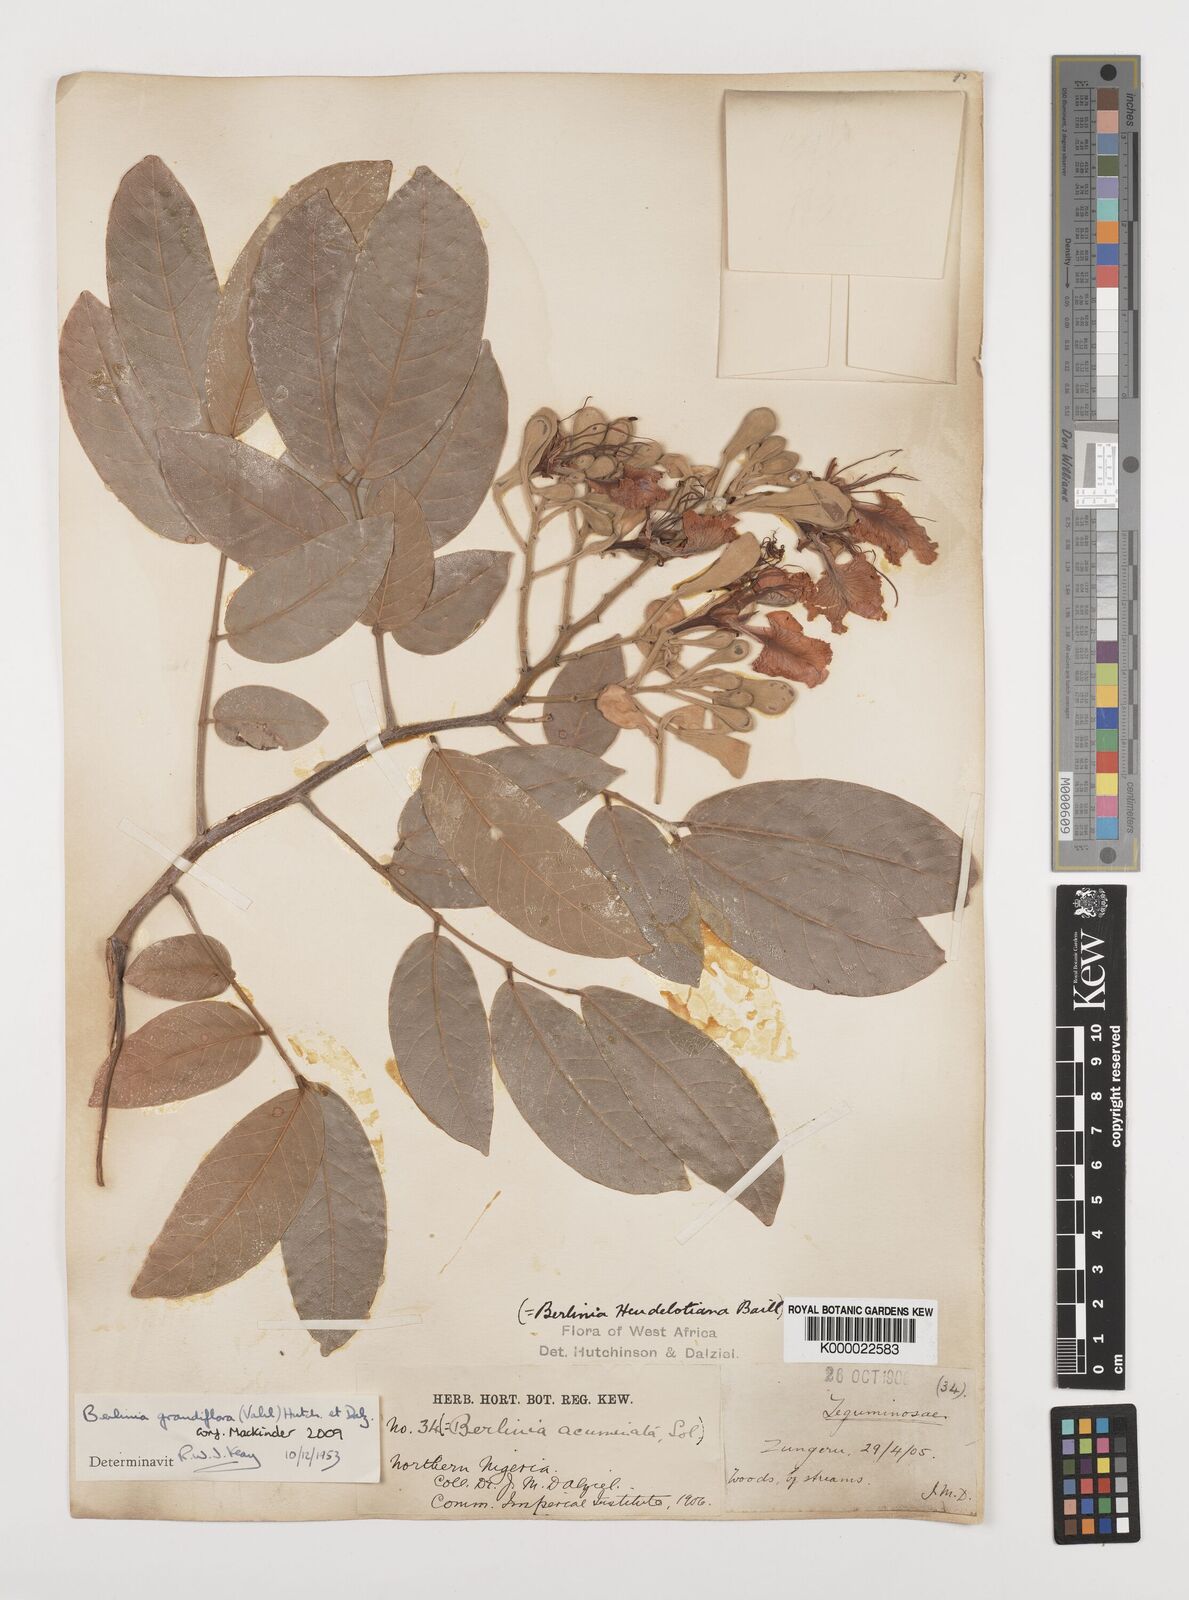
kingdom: Plantae
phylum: Tracheophyta
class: Magnoliopsida
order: Fabales
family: Fabaceae
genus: Berlinia
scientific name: Berlinia grandiflora
